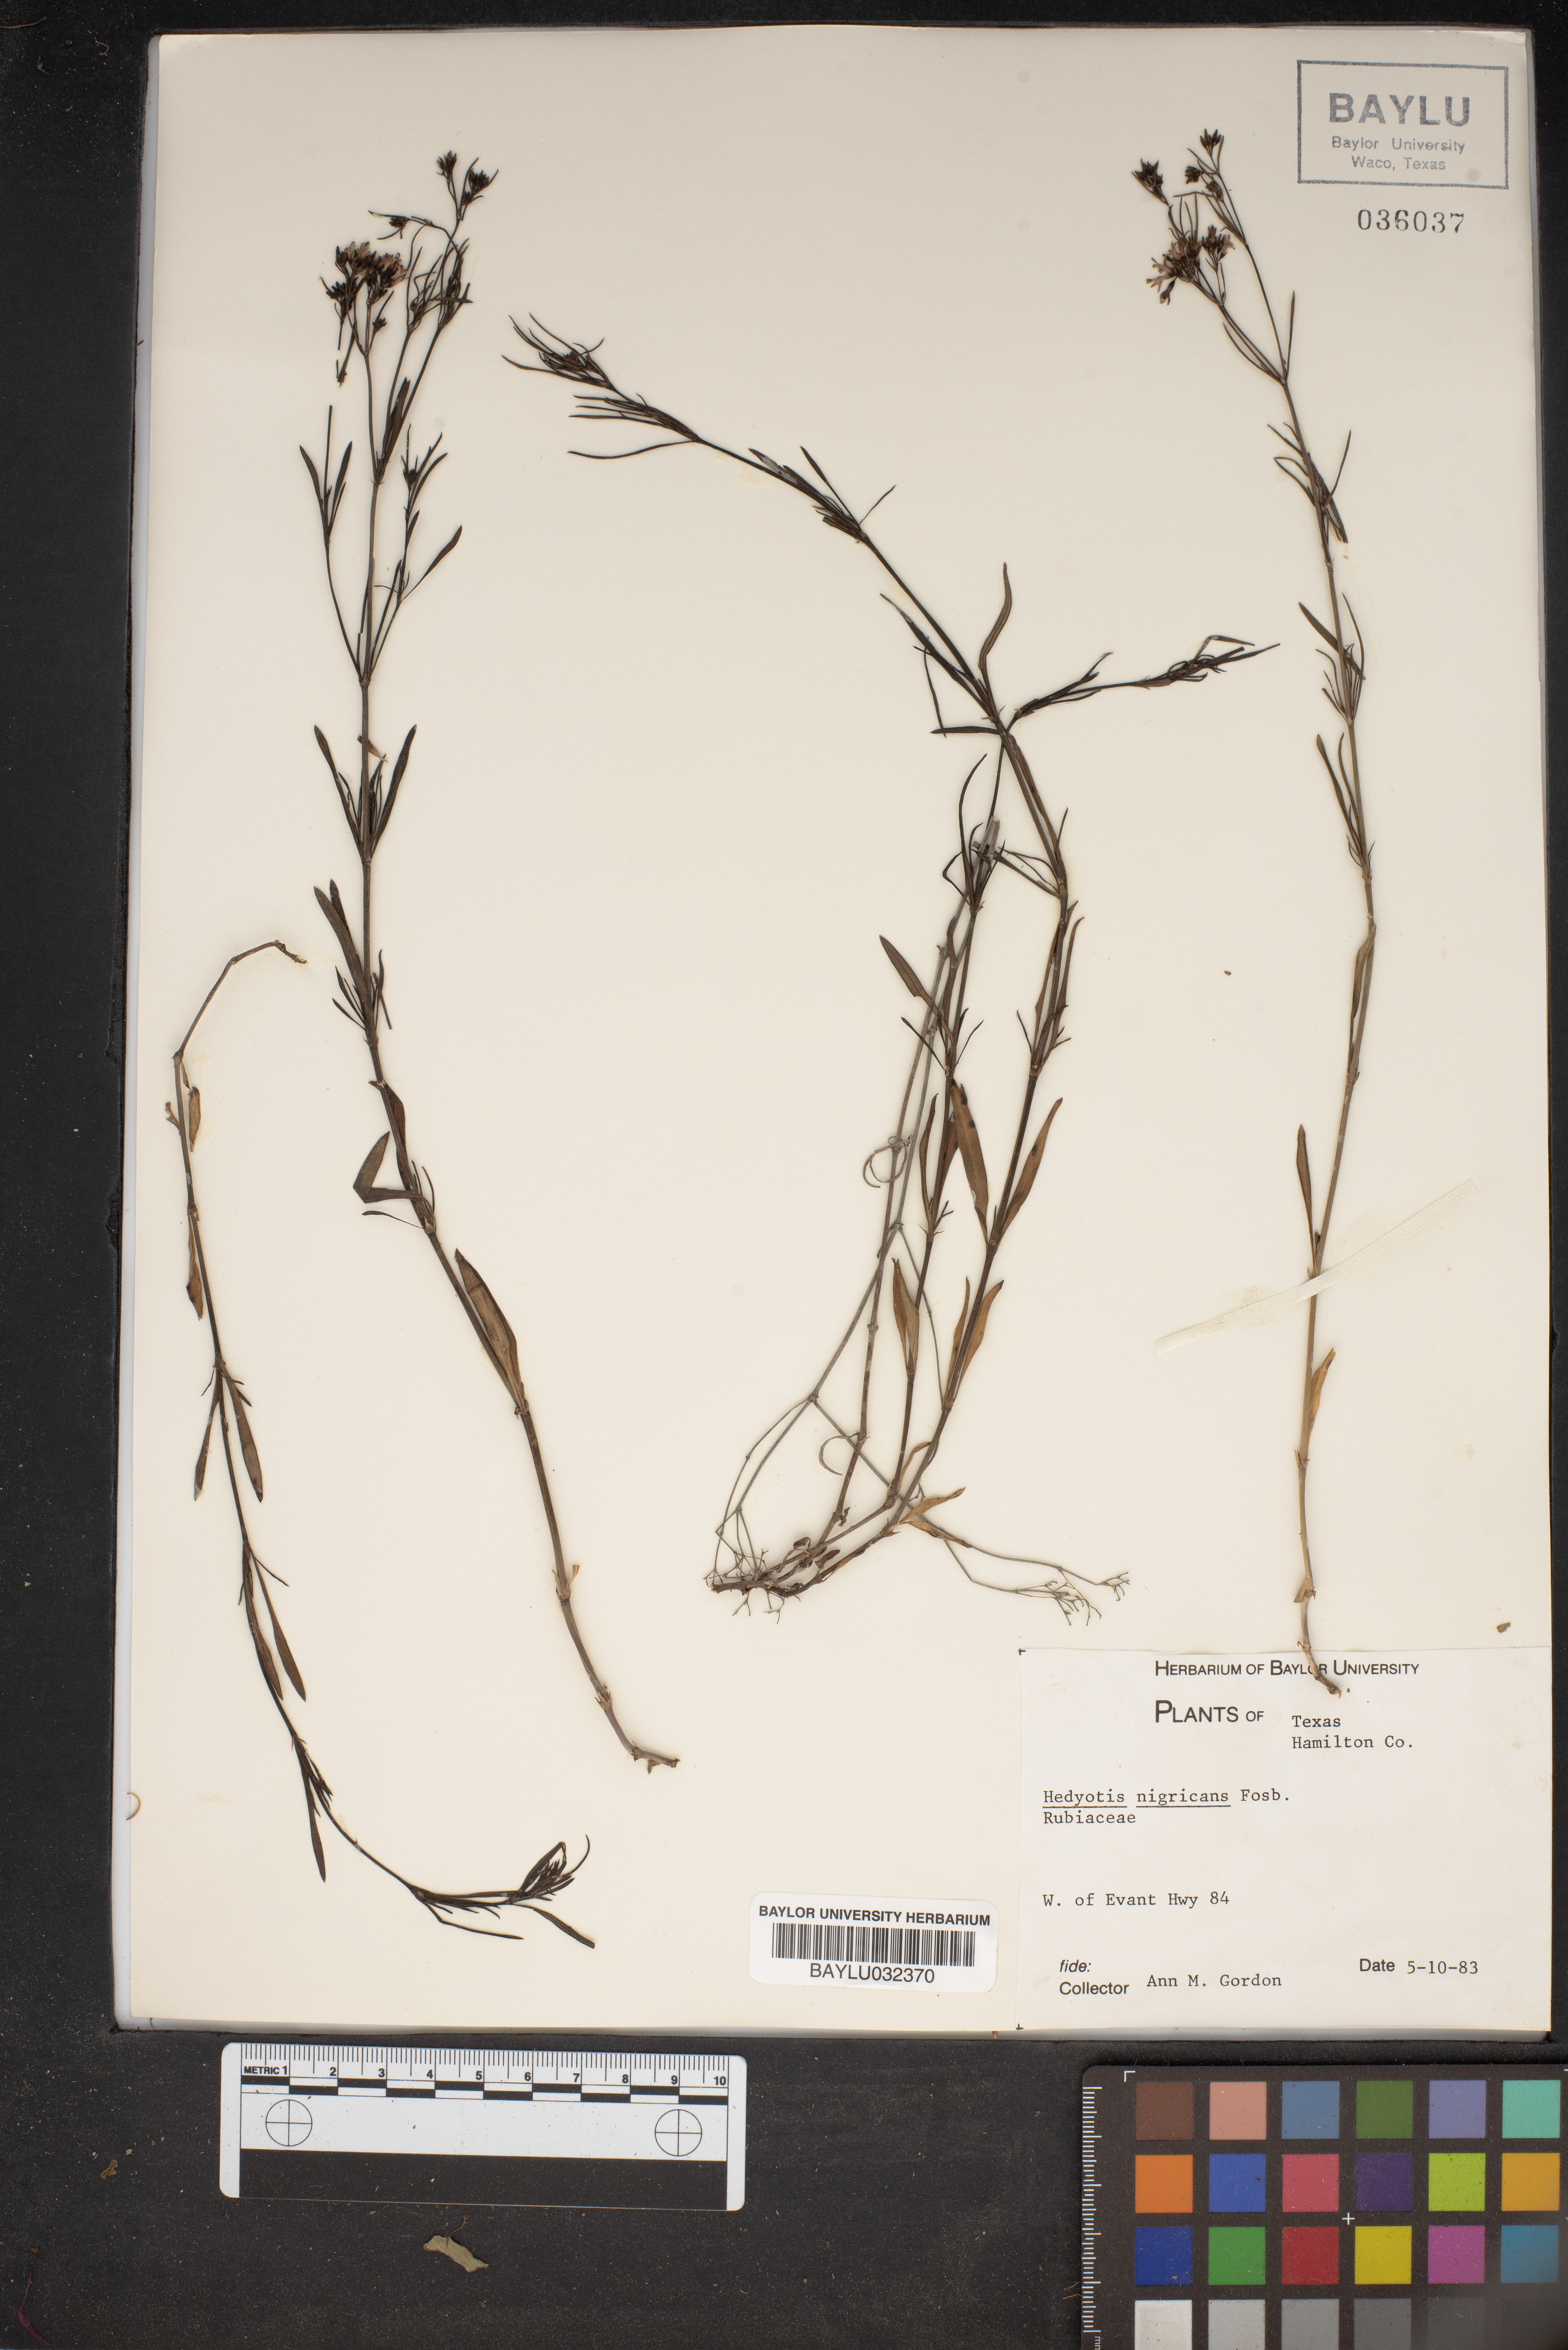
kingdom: Plantae
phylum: Tracheophyta
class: Magnoliopsida
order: Gentianales
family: Rubiaceae
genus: Stenaria
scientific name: Stenaria nigricans
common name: Diamondflowers
